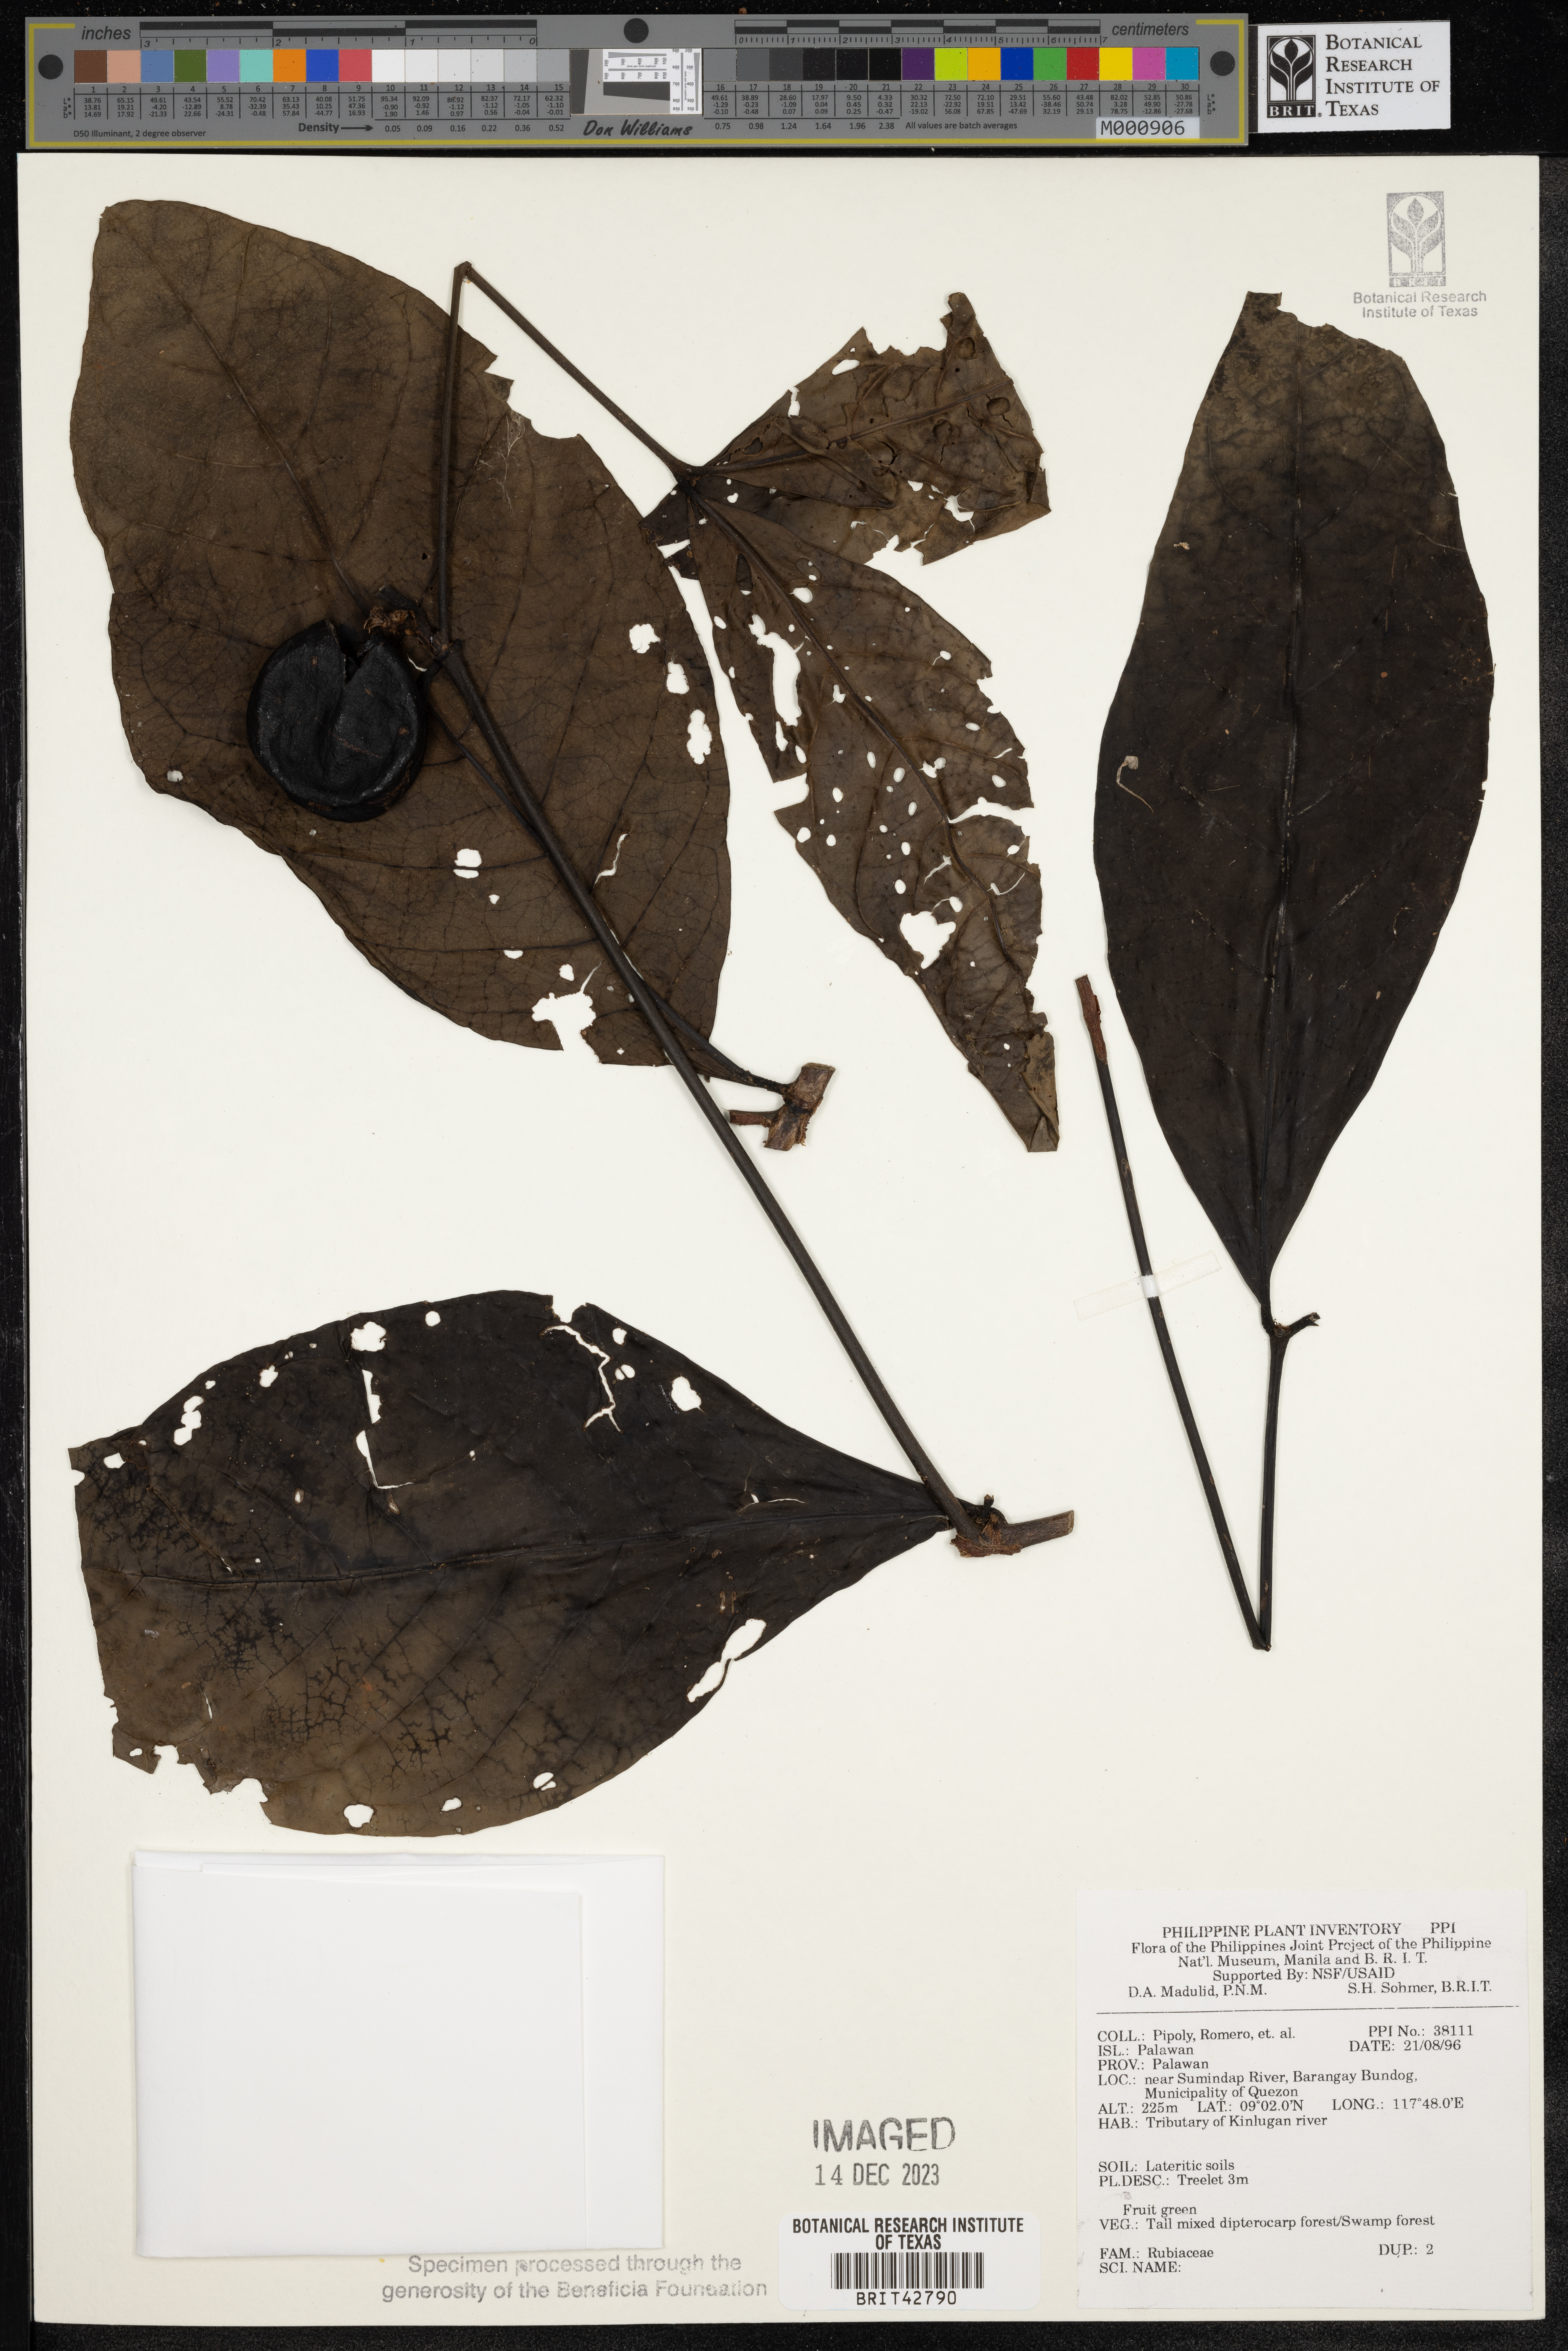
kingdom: Plantae
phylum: Tracheophyta
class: Magnoliopsida
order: Gentianales
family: Rubiaceae
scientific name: Rubiaceae
